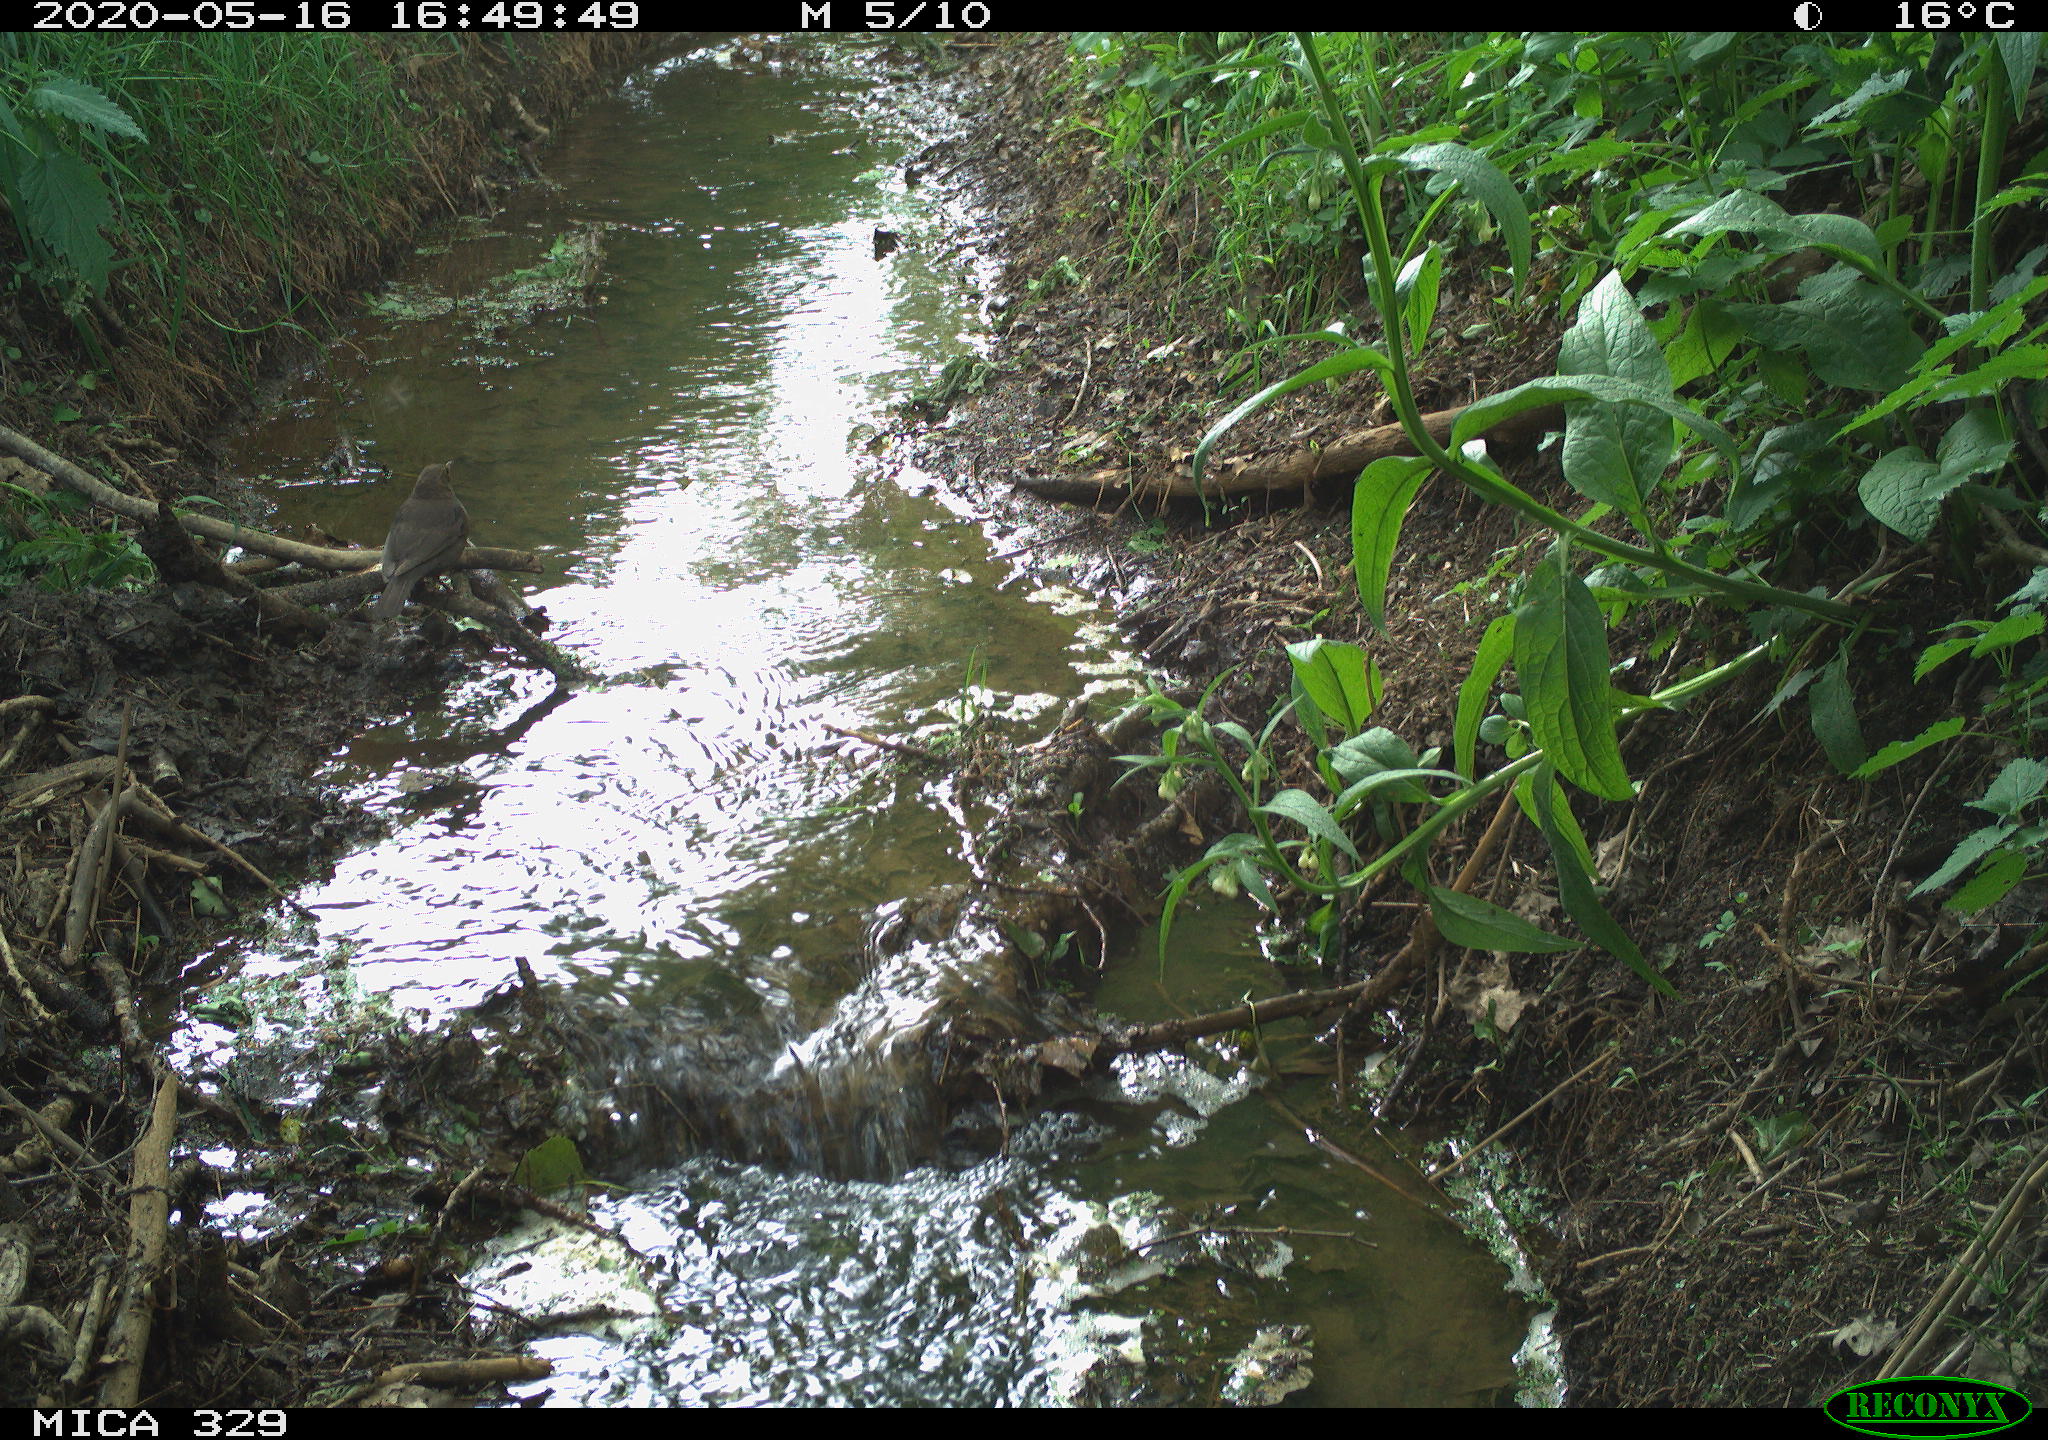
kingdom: Animalia
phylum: Chordata
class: Aves
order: Passeriformes
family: Turdidae
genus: Turdus
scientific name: Turdus merula
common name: Common blackbird
